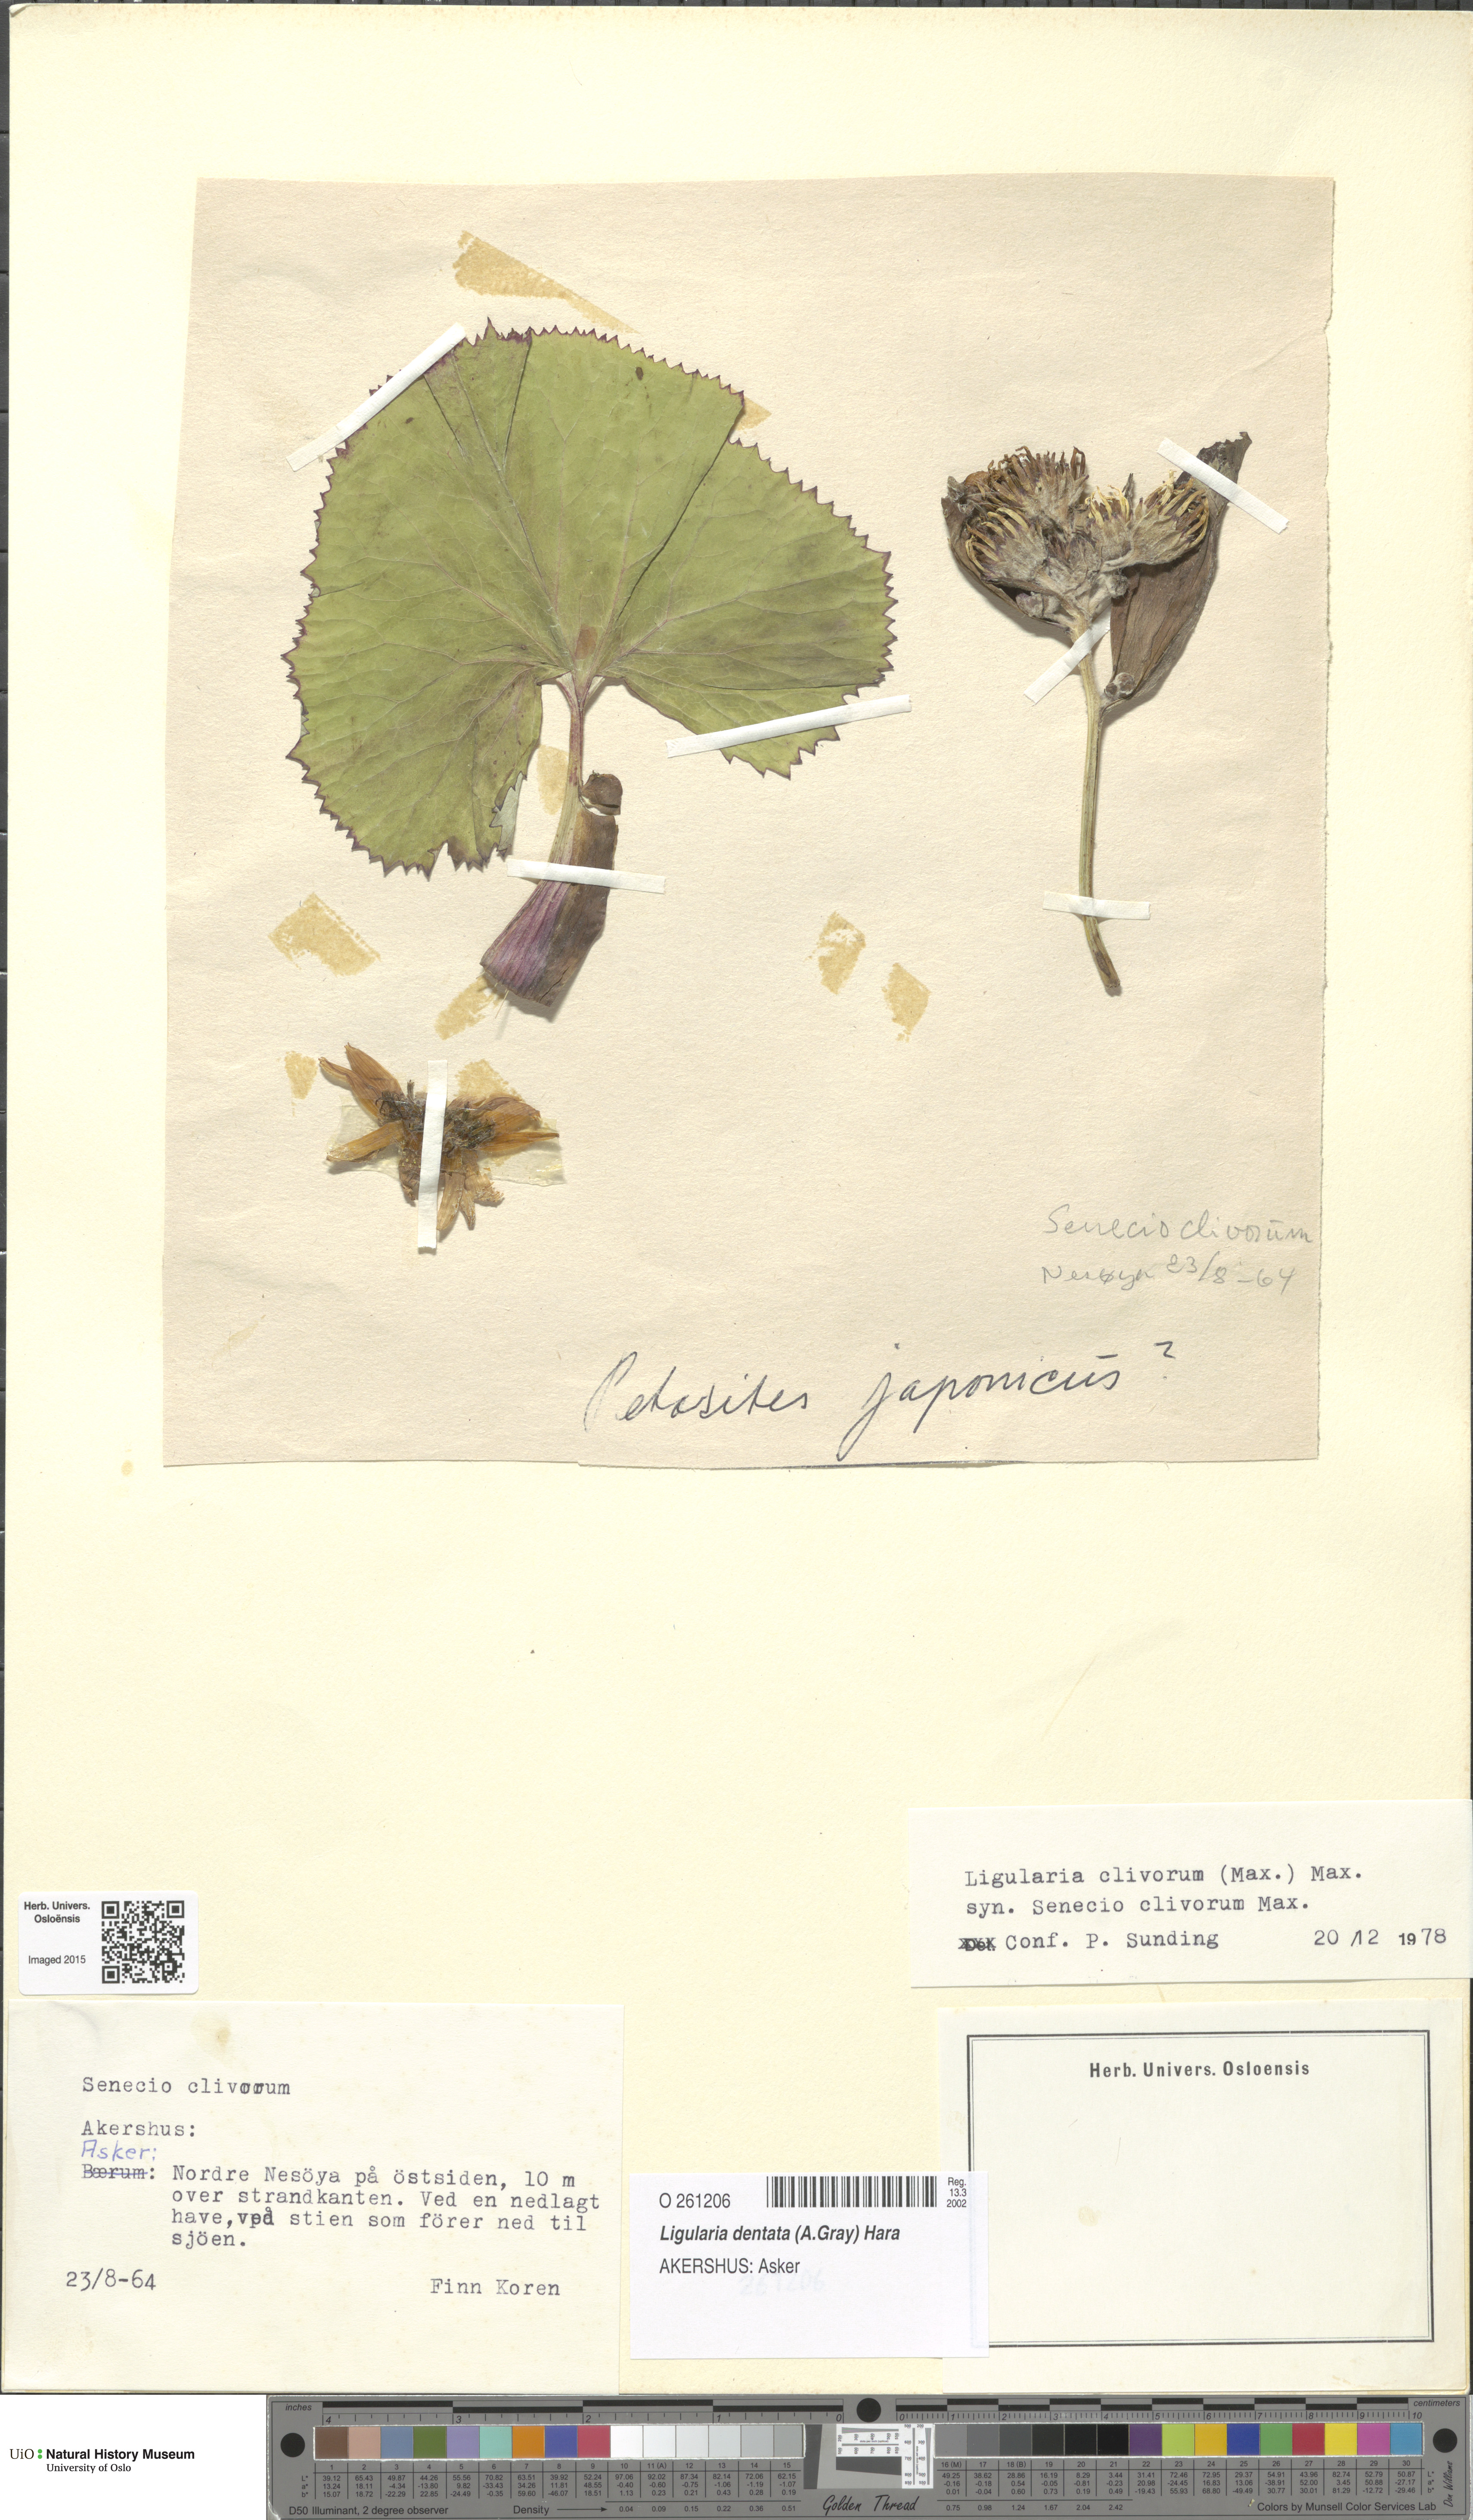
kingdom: Plantae
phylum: Tracheophyta
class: Magnoliopsida
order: Asterales
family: Asteraceae
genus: Ligularia
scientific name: Ligularia dentata
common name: Leopardplant
